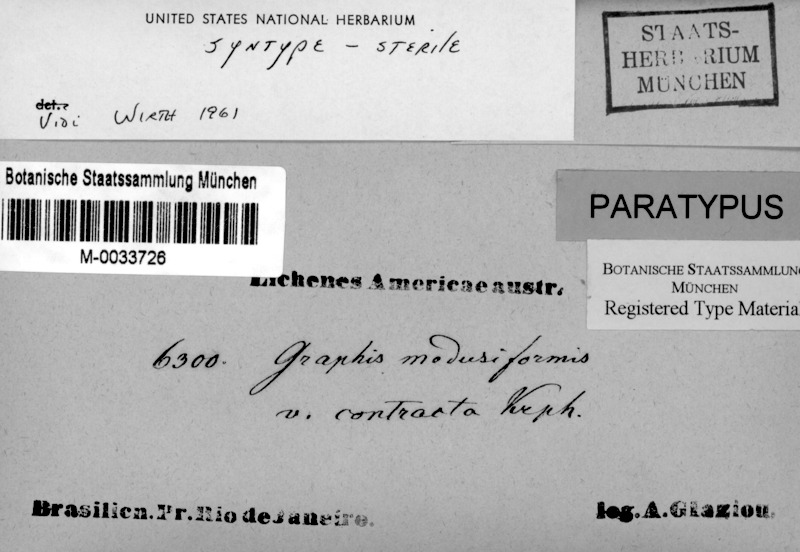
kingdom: Fungi
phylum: Ascomycota
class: Lecanoromycetes
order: Ostropales
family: Graphidaceae
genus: Phaeographis
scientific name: Phaeographis
